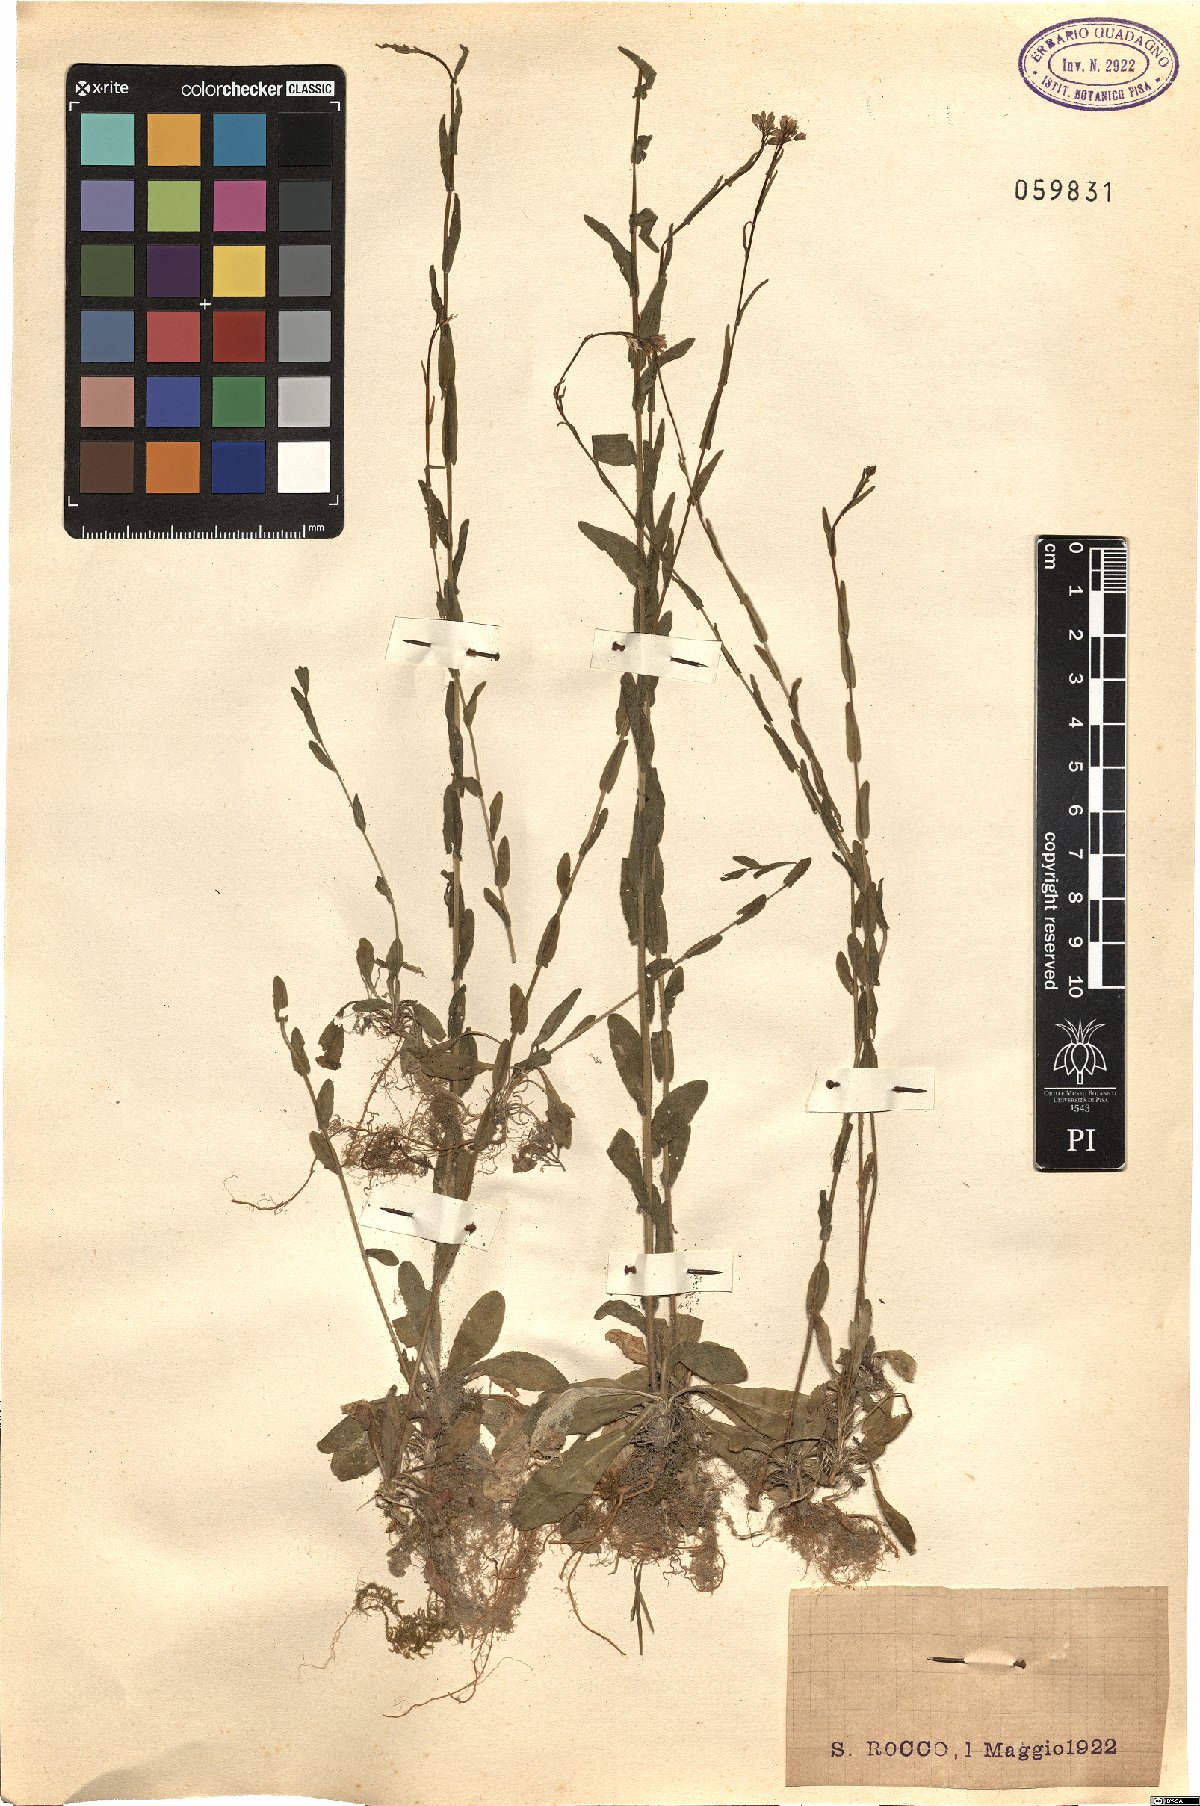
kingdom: Plantae
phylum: Tracheophyta
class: Magnoliopsida
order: Brassicales
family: Brassicaceae
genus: Arabis
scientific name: Arabis
